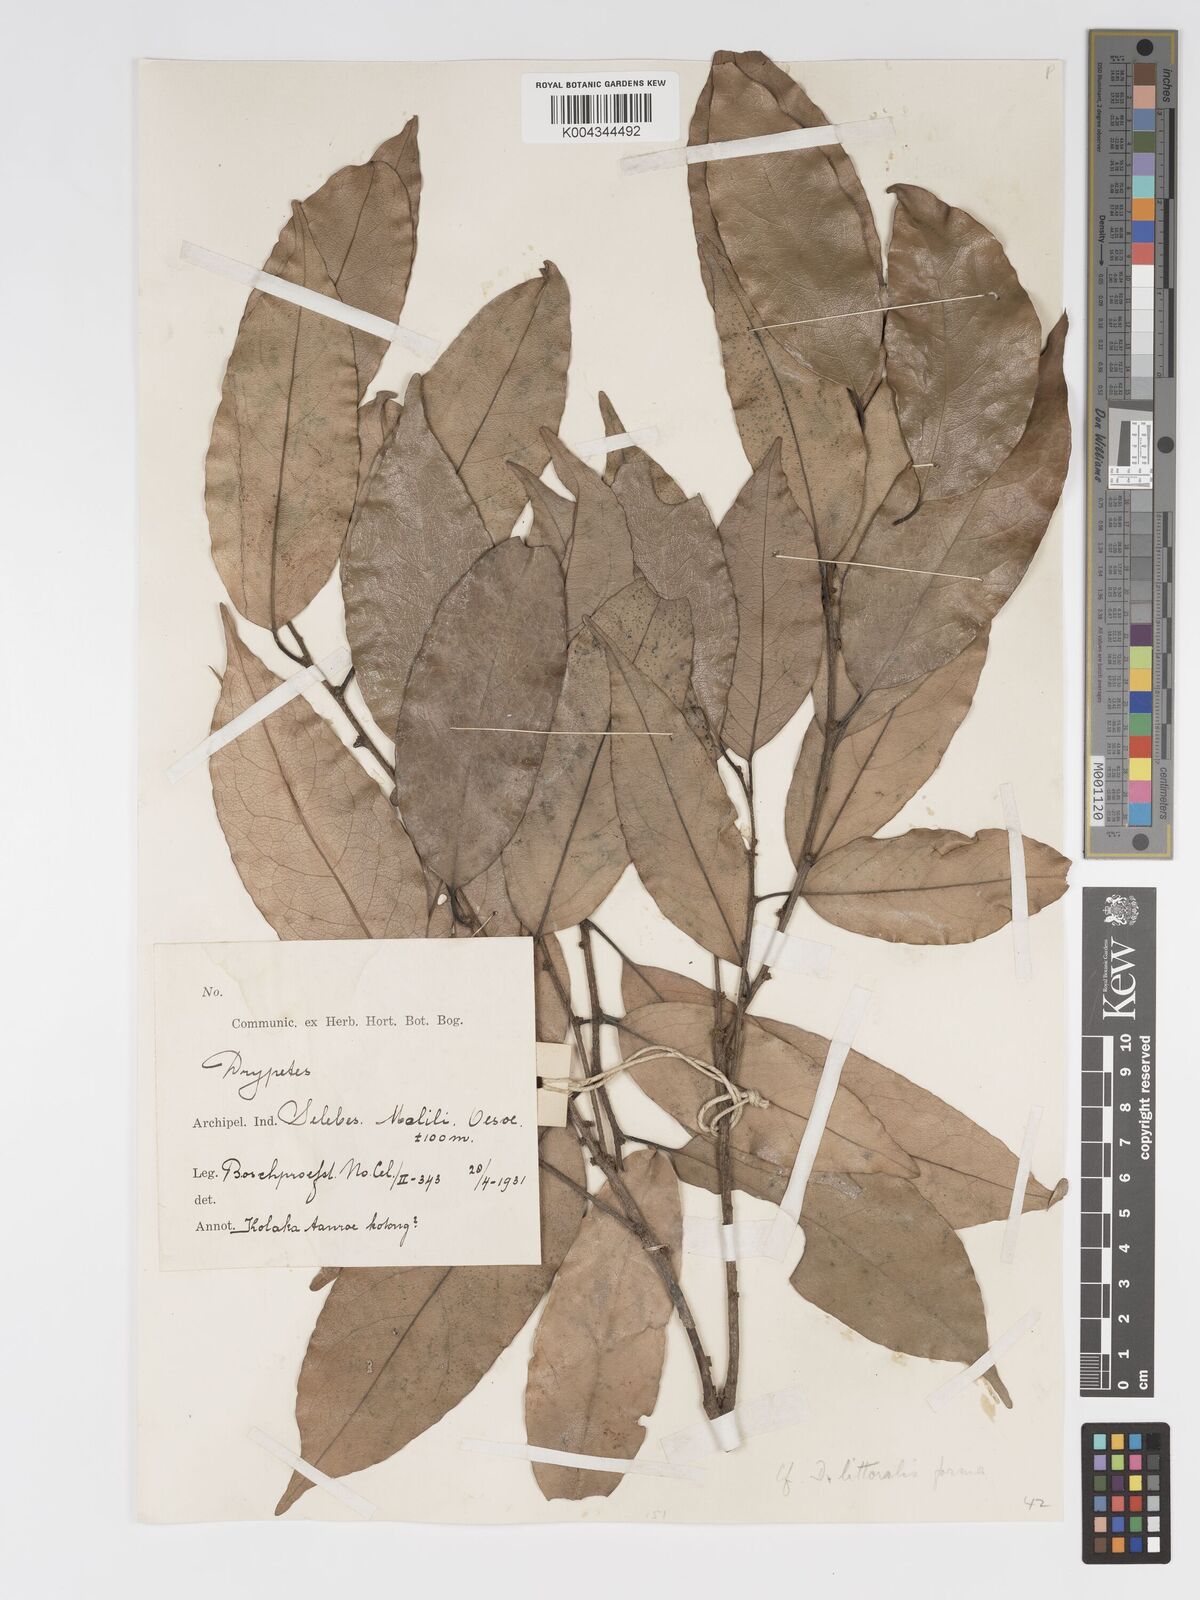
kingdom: Plantae
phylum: Tracheophyta
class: Magnoliopsida
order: Malpighiales
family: Putranjivaceae
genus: Drypetes
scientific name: Drypetes littoralis
